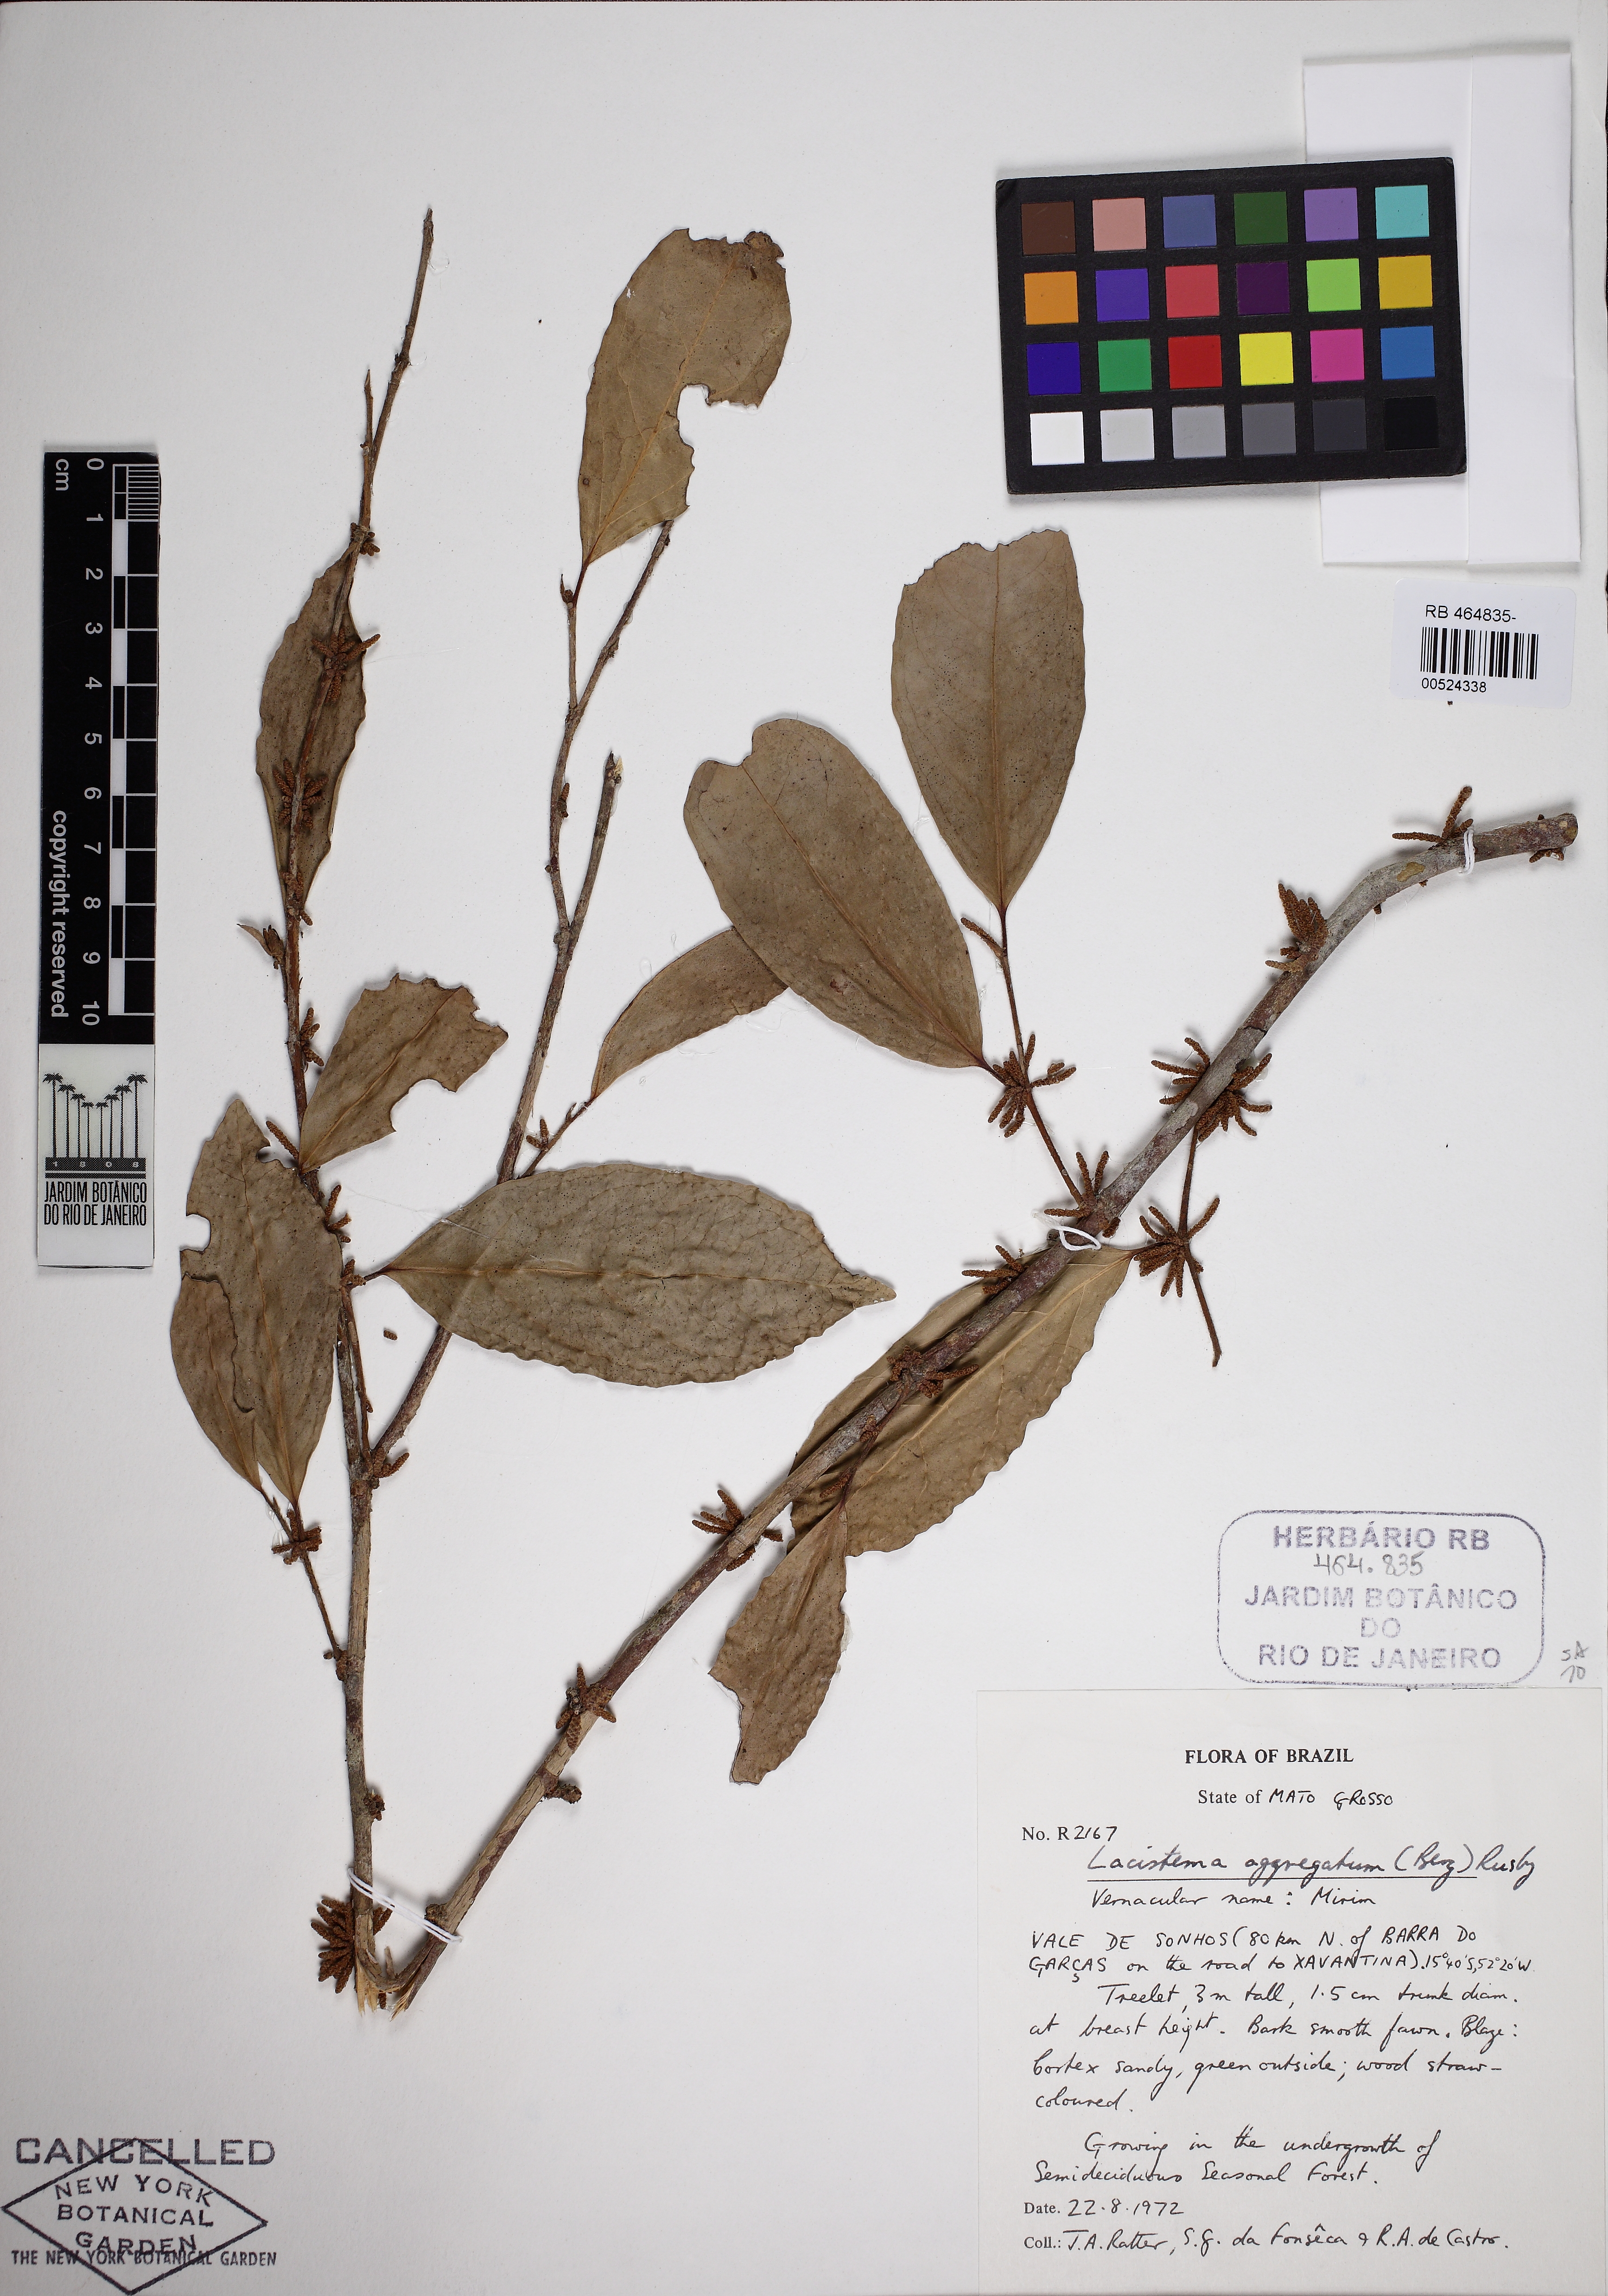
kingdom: Plantae
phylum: Tracheophyta
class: Magnoliopsida
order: Malpighiales
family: Lacistemataceae
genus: Lacistema
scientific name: Lacistema aggregatum
